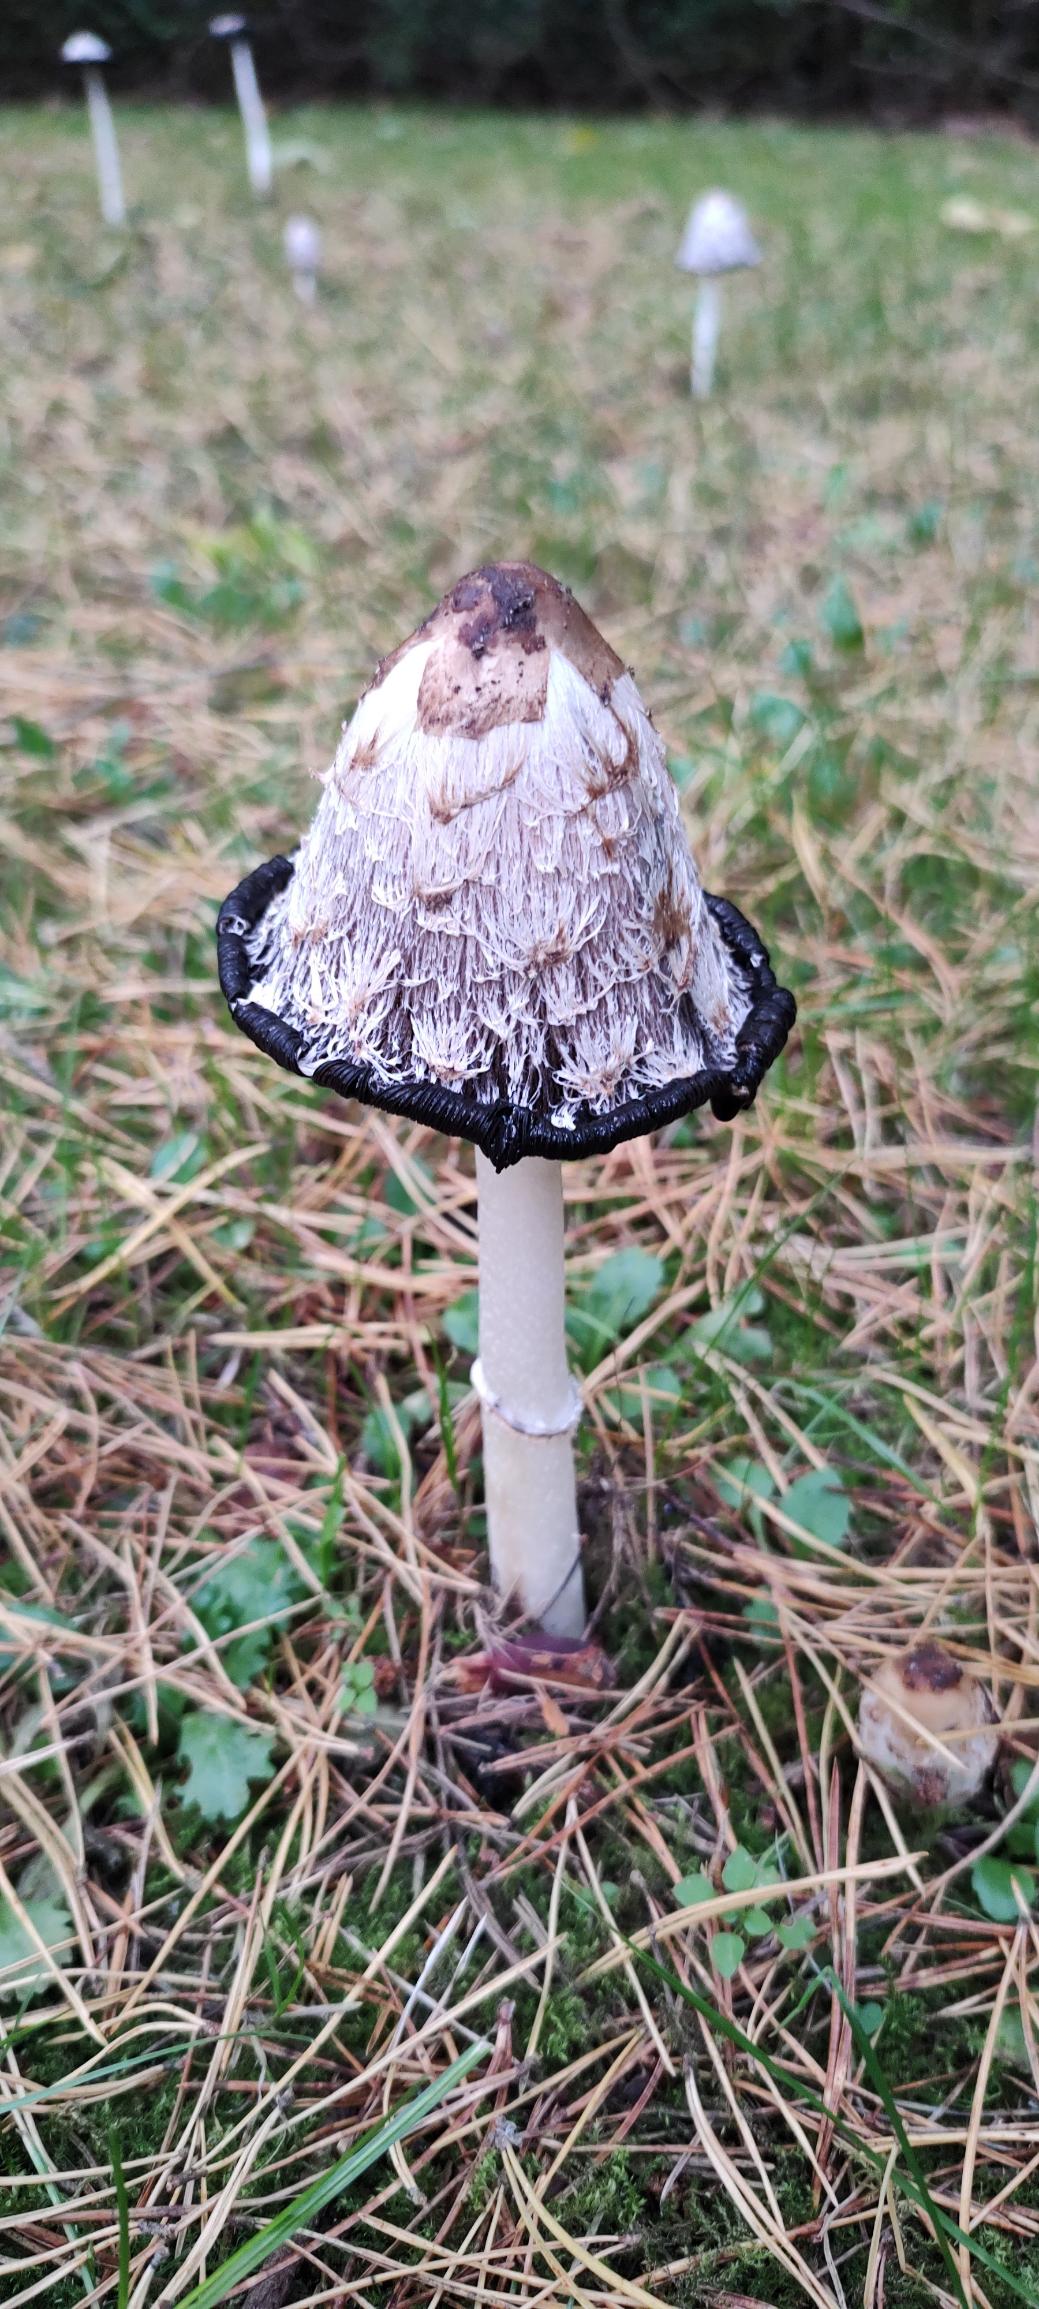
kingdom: Fungi
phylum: Basidiomycota
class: Agaricomycetes
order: Agaricales
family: Agaricaceae
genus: Coprinus
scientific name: Coprinus comatus
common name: Stor parykhat
